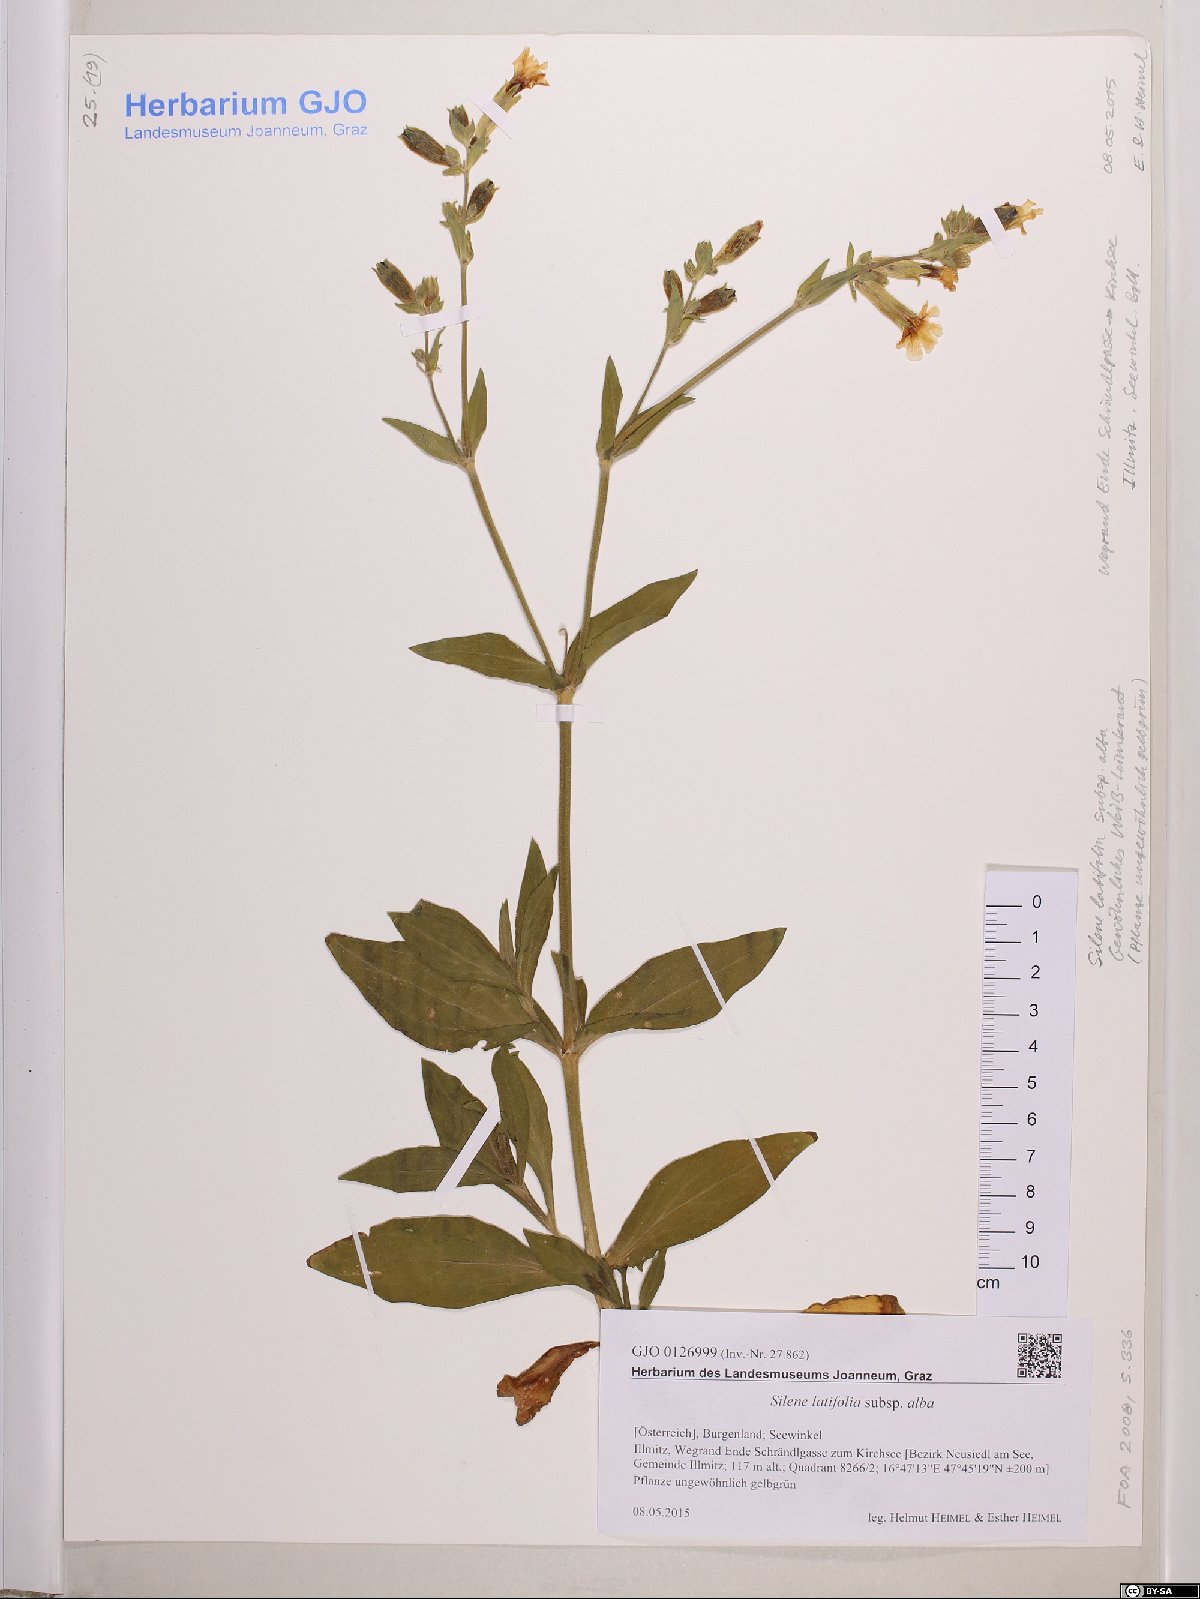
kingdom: Plantae
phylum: Tracheophyta
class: Magnoliopsida
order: Caryophyllales
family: Caryophyllaceae
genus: Silene
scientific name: Silene latifolia
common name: White campion
